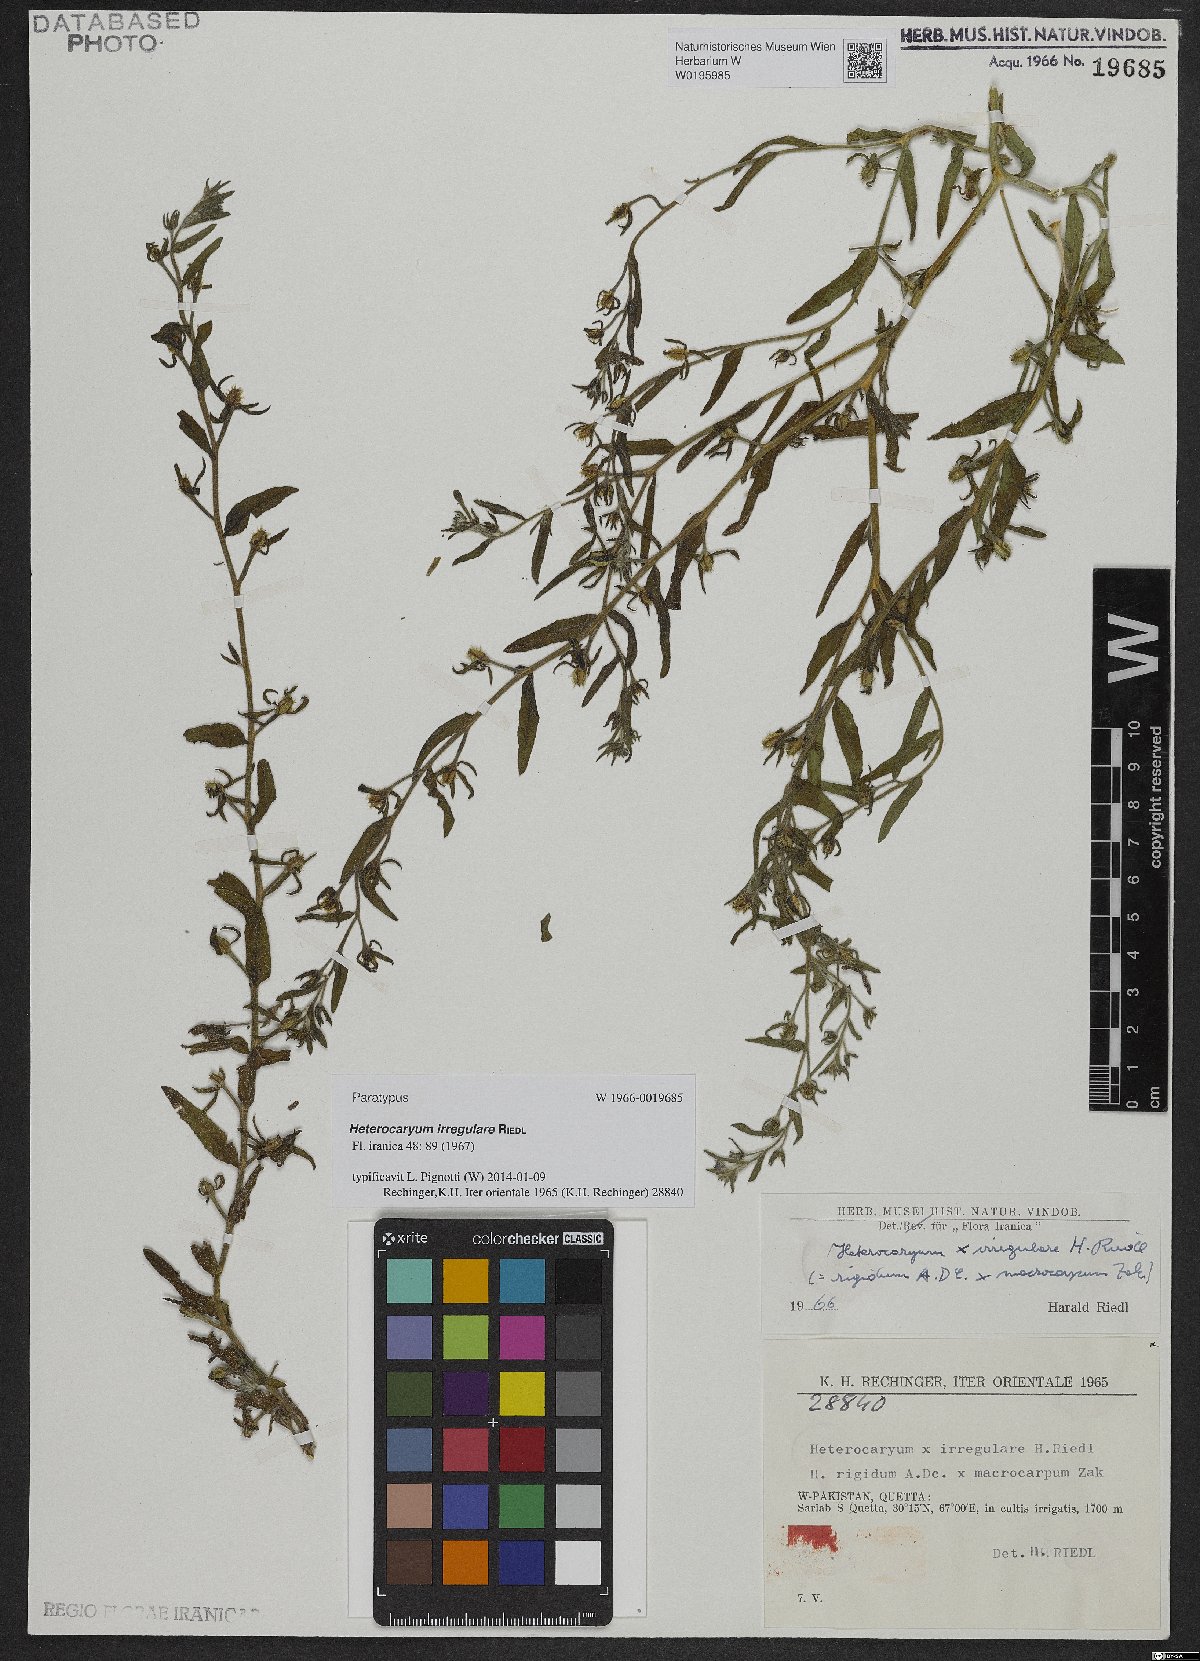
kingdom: Plantae
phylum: Tracheophyta
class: Magnoliopsida
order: Boraginales
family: Boraginaceae
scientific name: Boraginaceae
